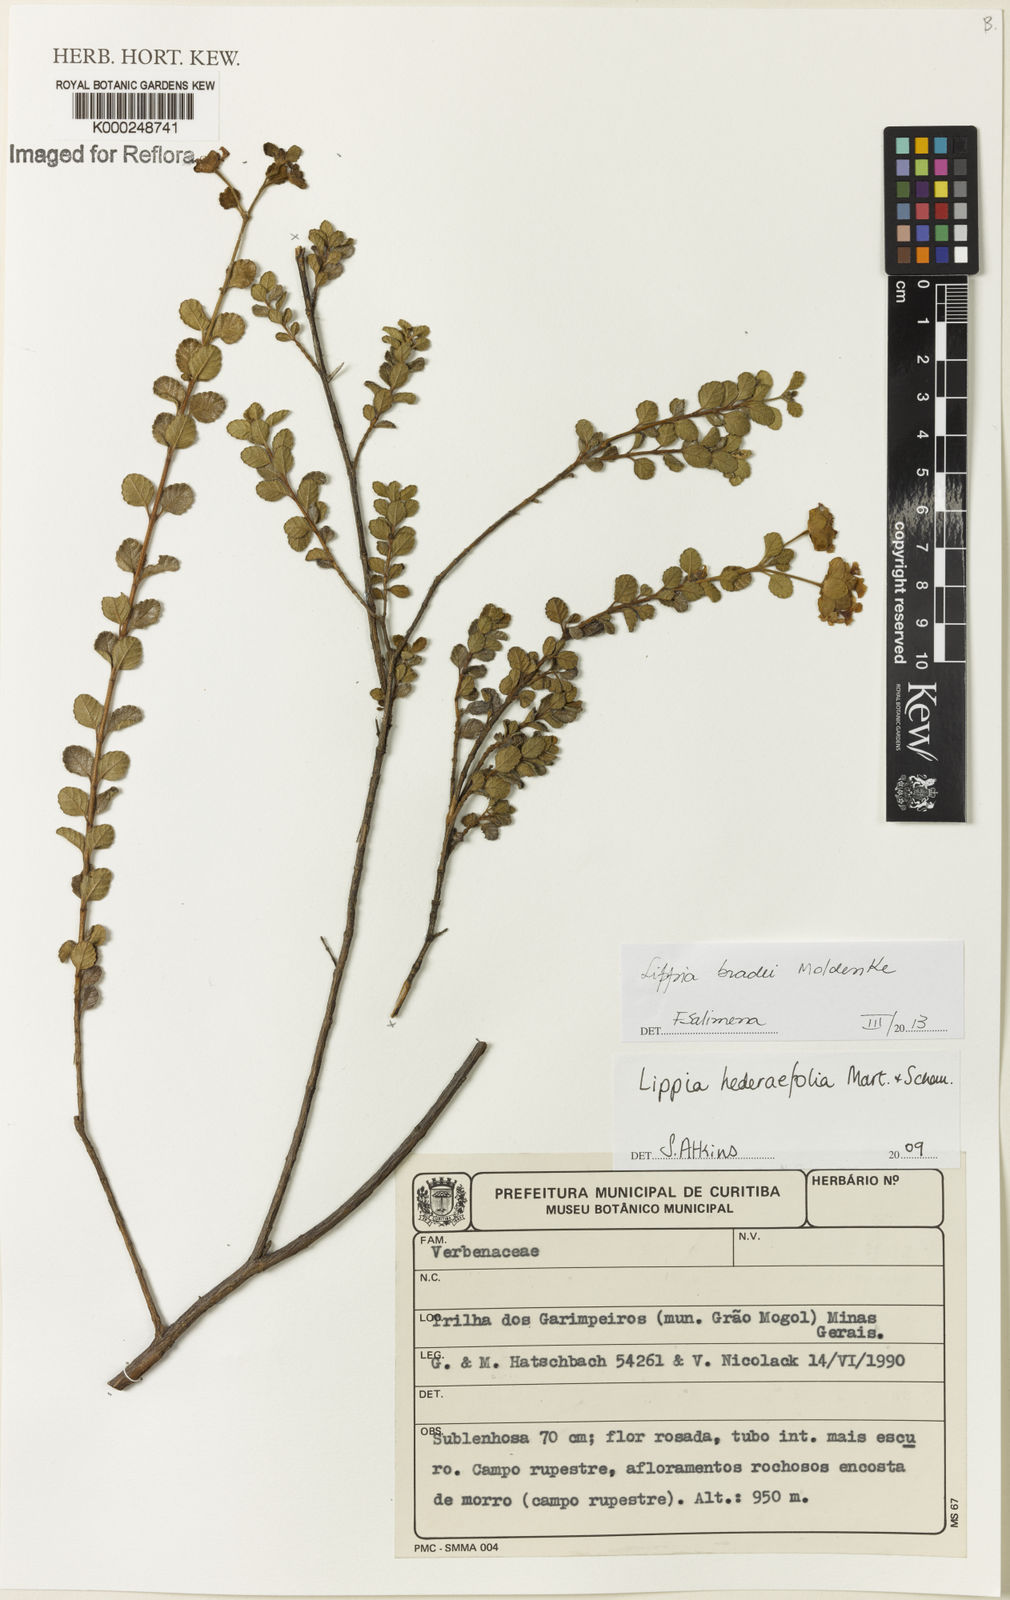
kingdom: Plantae
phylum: Tracheophyta
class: Magnoliopsida
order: Lamiales
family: Verbenaceae
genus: Lippia
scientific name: Lippia hederifolia
